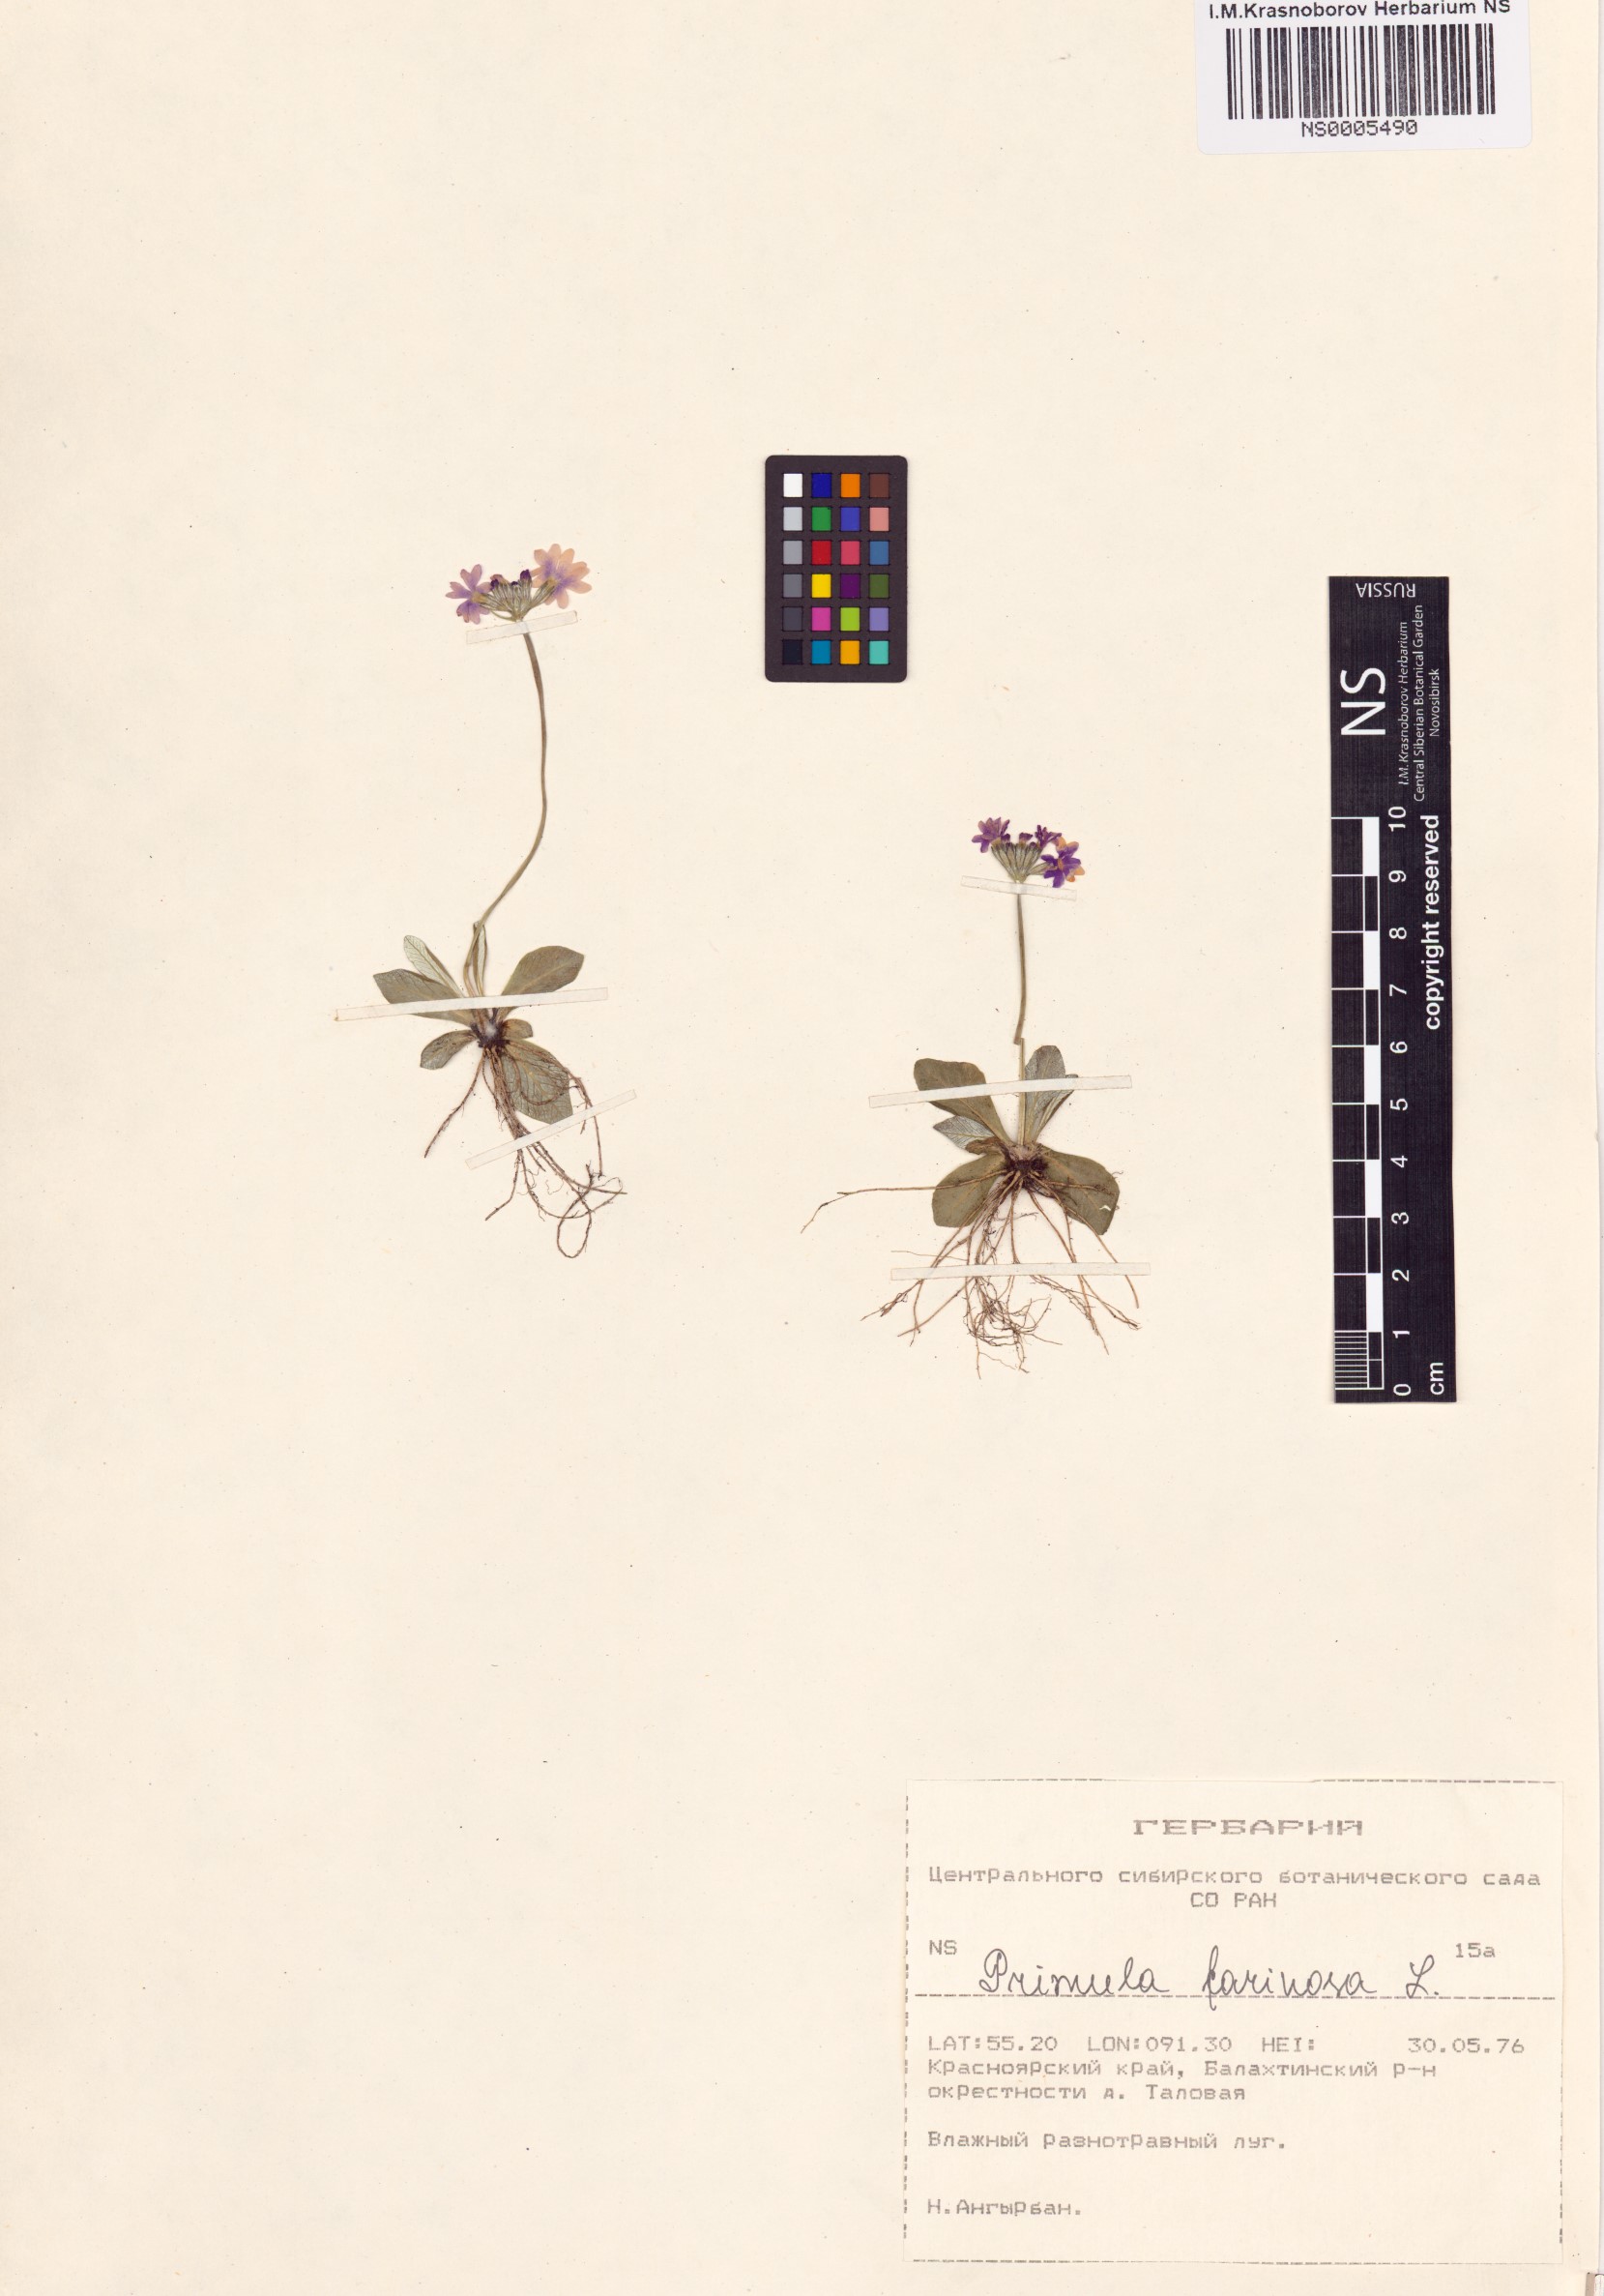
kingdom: Plantae
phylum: Tracheophyta
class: Magnoliopsida
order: Ericales
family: Primulaceae
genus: Primula
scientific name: Primula farinosa
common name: Bird's-eye primrose
